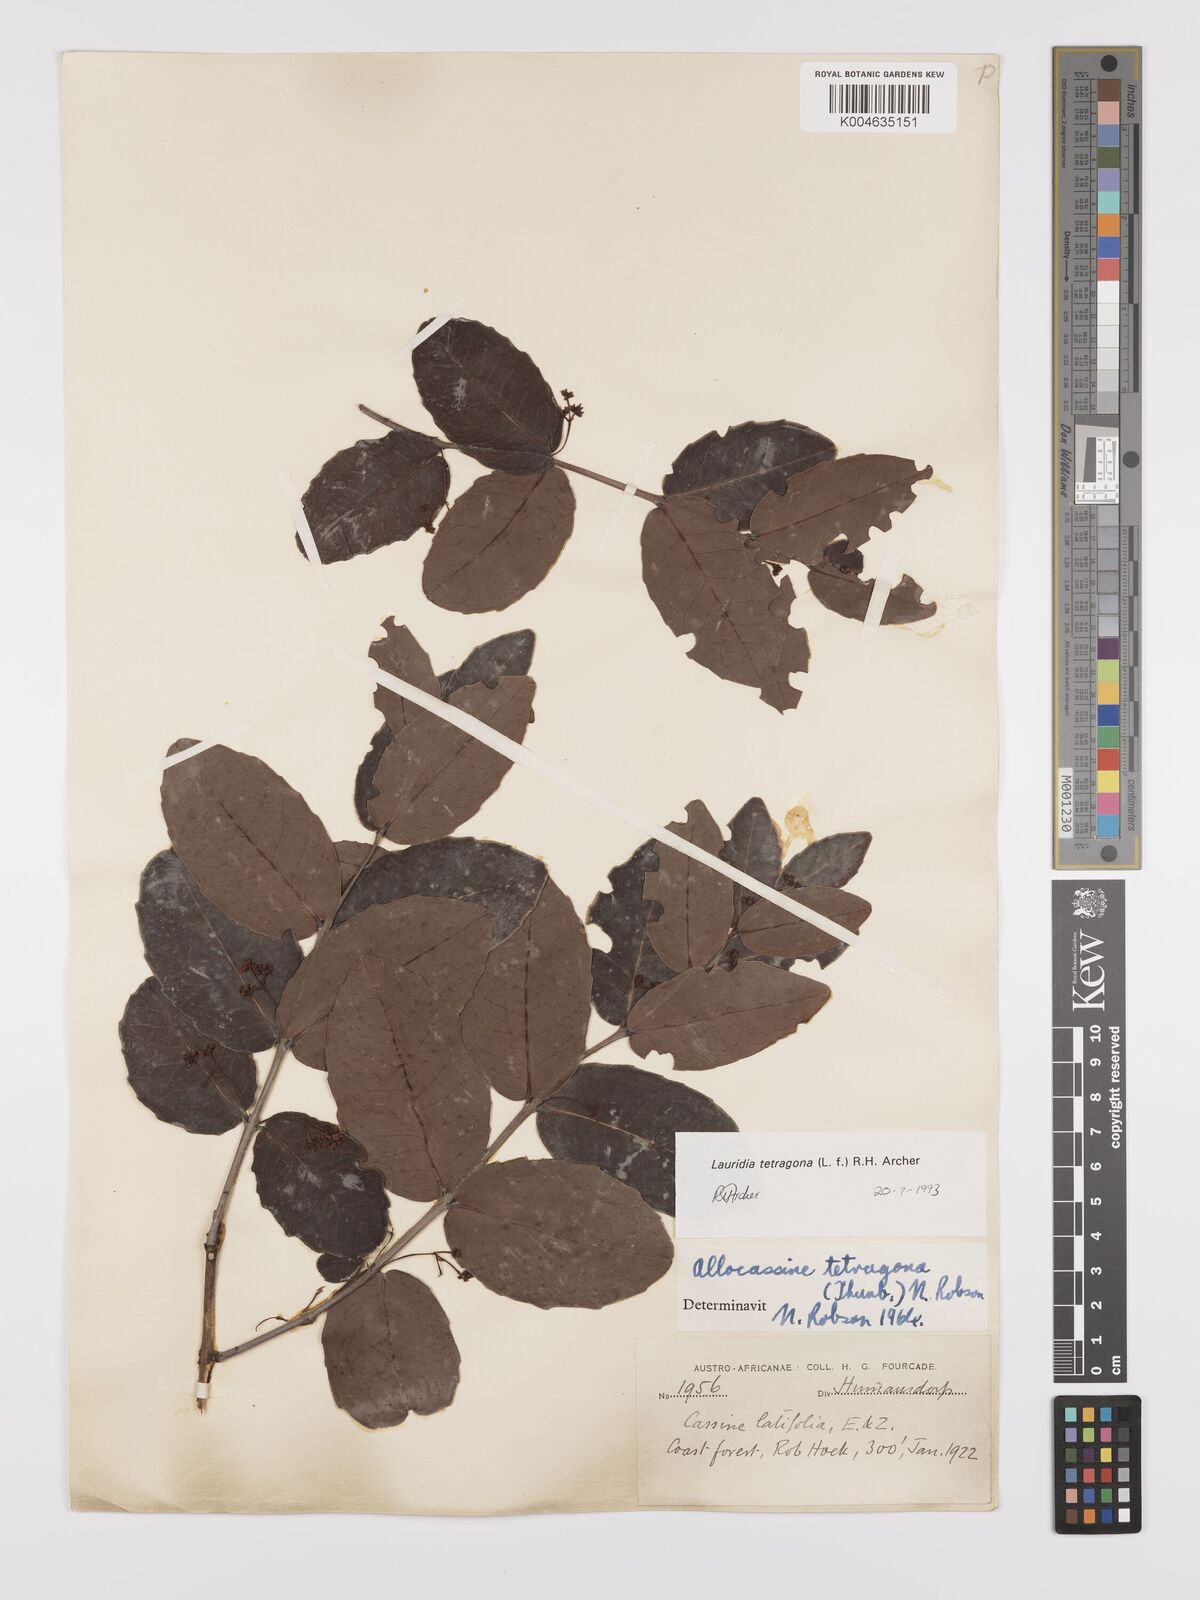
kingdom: Plantae
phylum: Tracheophyta
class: Magnoliopsida
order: Celastrales
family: Celastraceae
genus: Lauridia
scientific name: Lauridia tetragona
